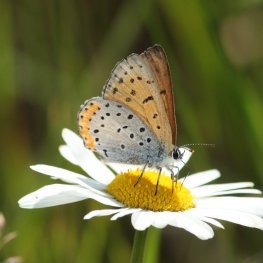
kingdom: Animalia
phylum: Arthropoda
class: Insecta
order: Lepidoptera
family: Sesiidae
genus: Sesia
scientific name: Sesia Lycaena hyllus
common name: Bronze Copper
